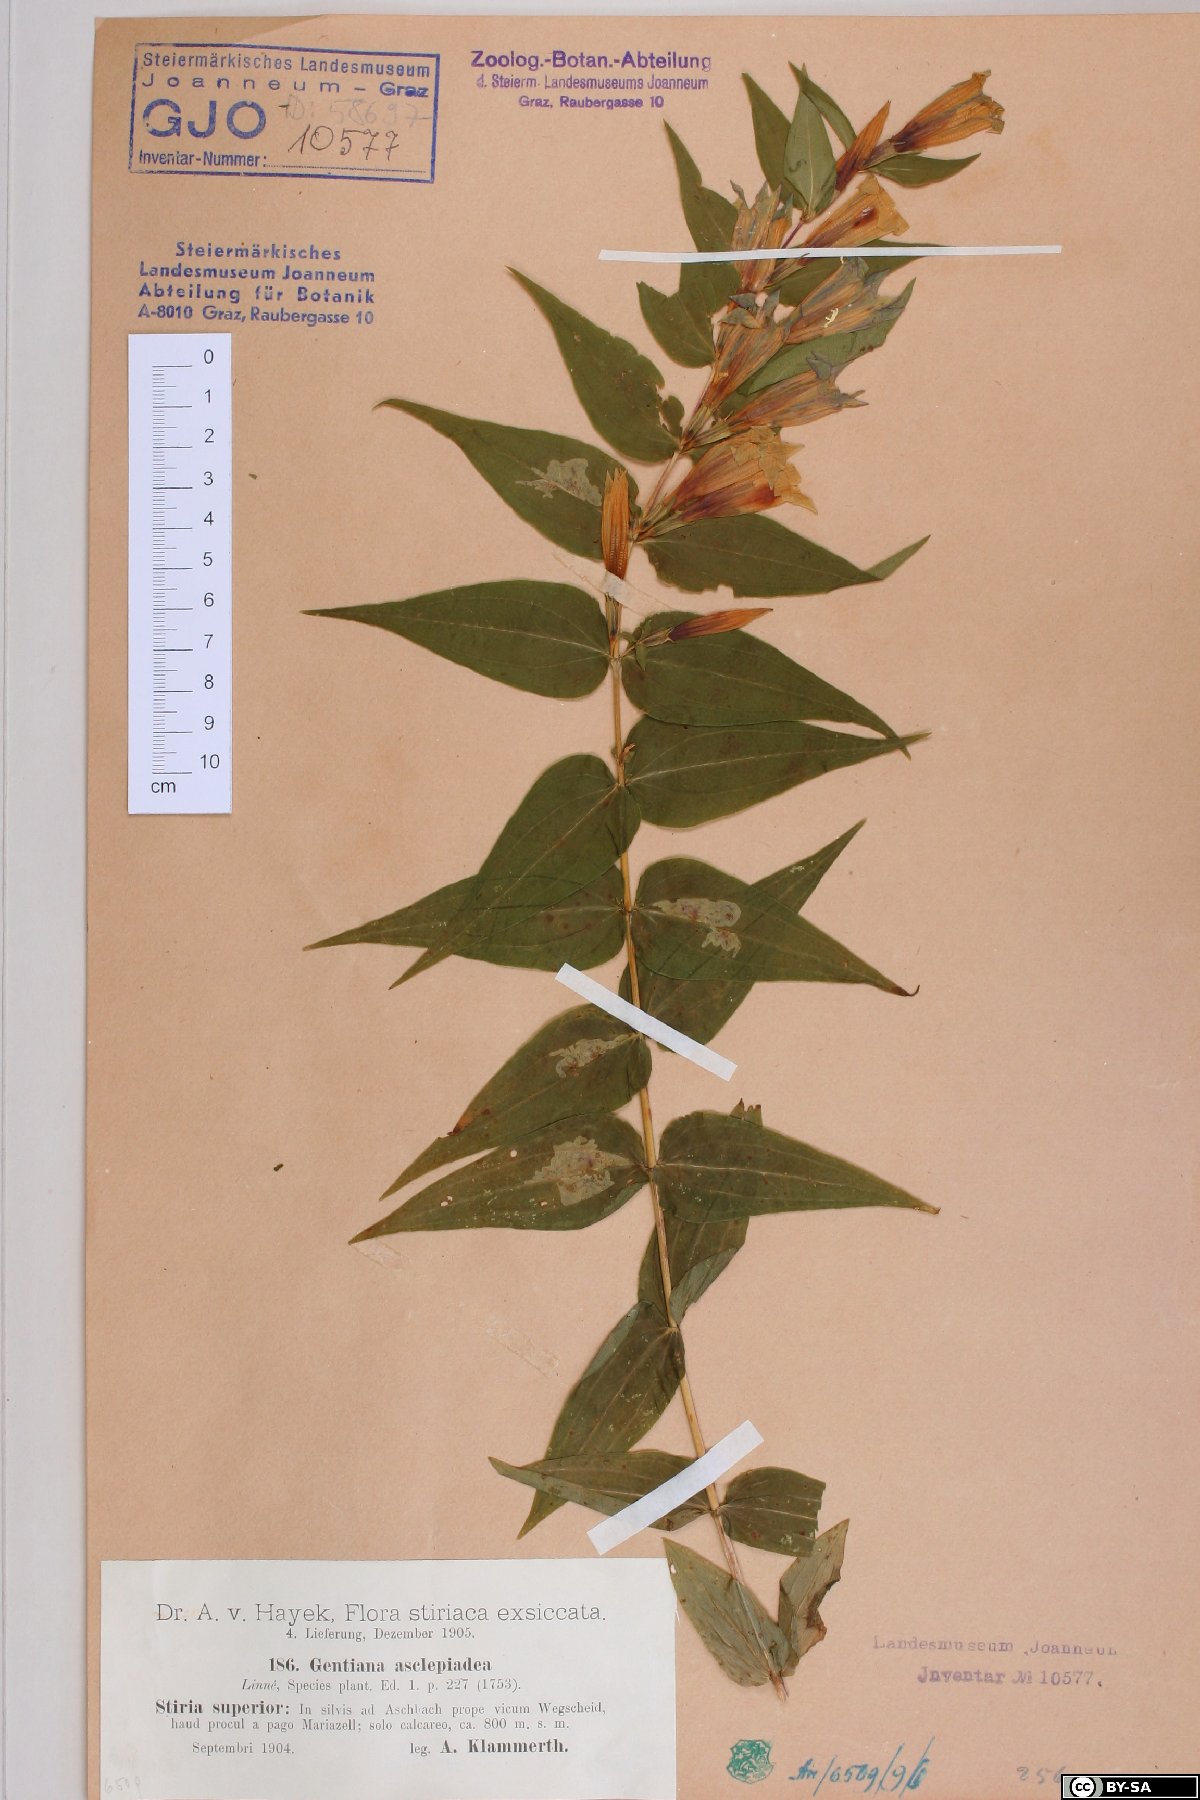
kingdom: Plantae
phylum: Tracheophyta
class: Magnoliopsida
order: Gentianales
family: Gentianaceae
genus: Gentiana
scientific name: Gentiana asclepiadea
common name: Willow gentian
